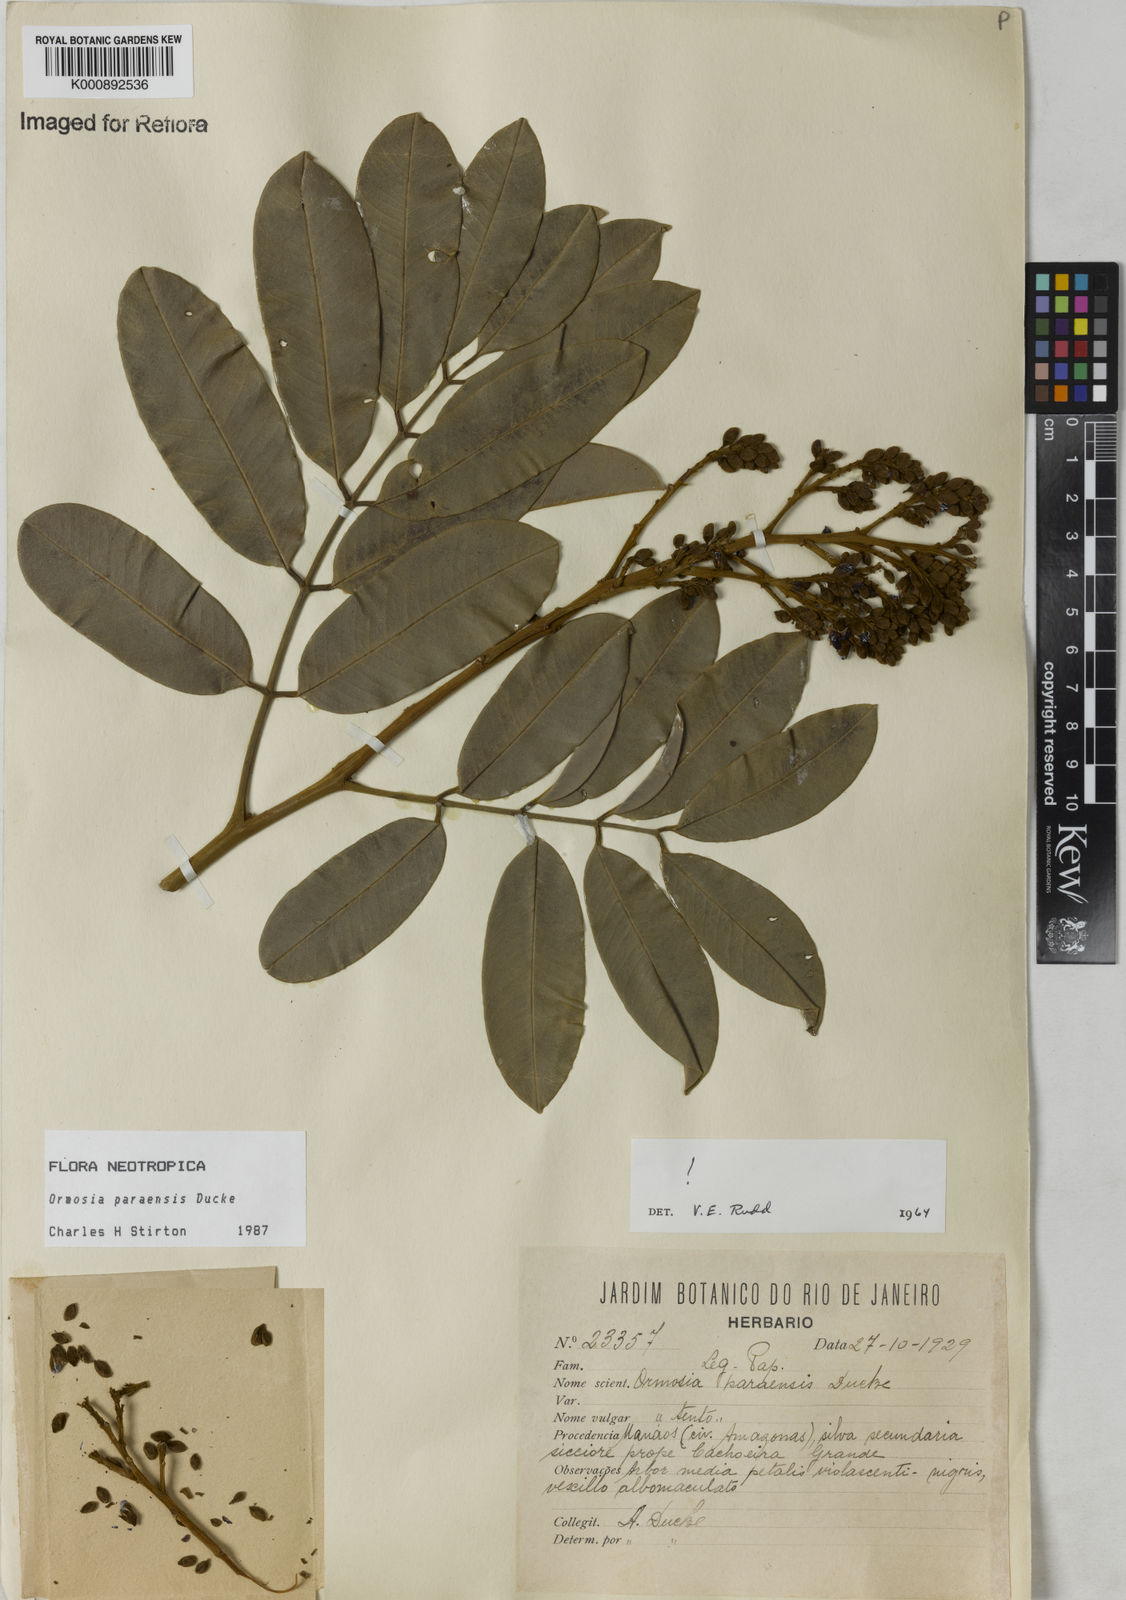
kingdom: Plantae
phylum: Tracheophyta
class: Magnoliopsida
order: Fabales
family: Fabaceae
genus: Ormosia
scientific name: Ormosia paraensis
